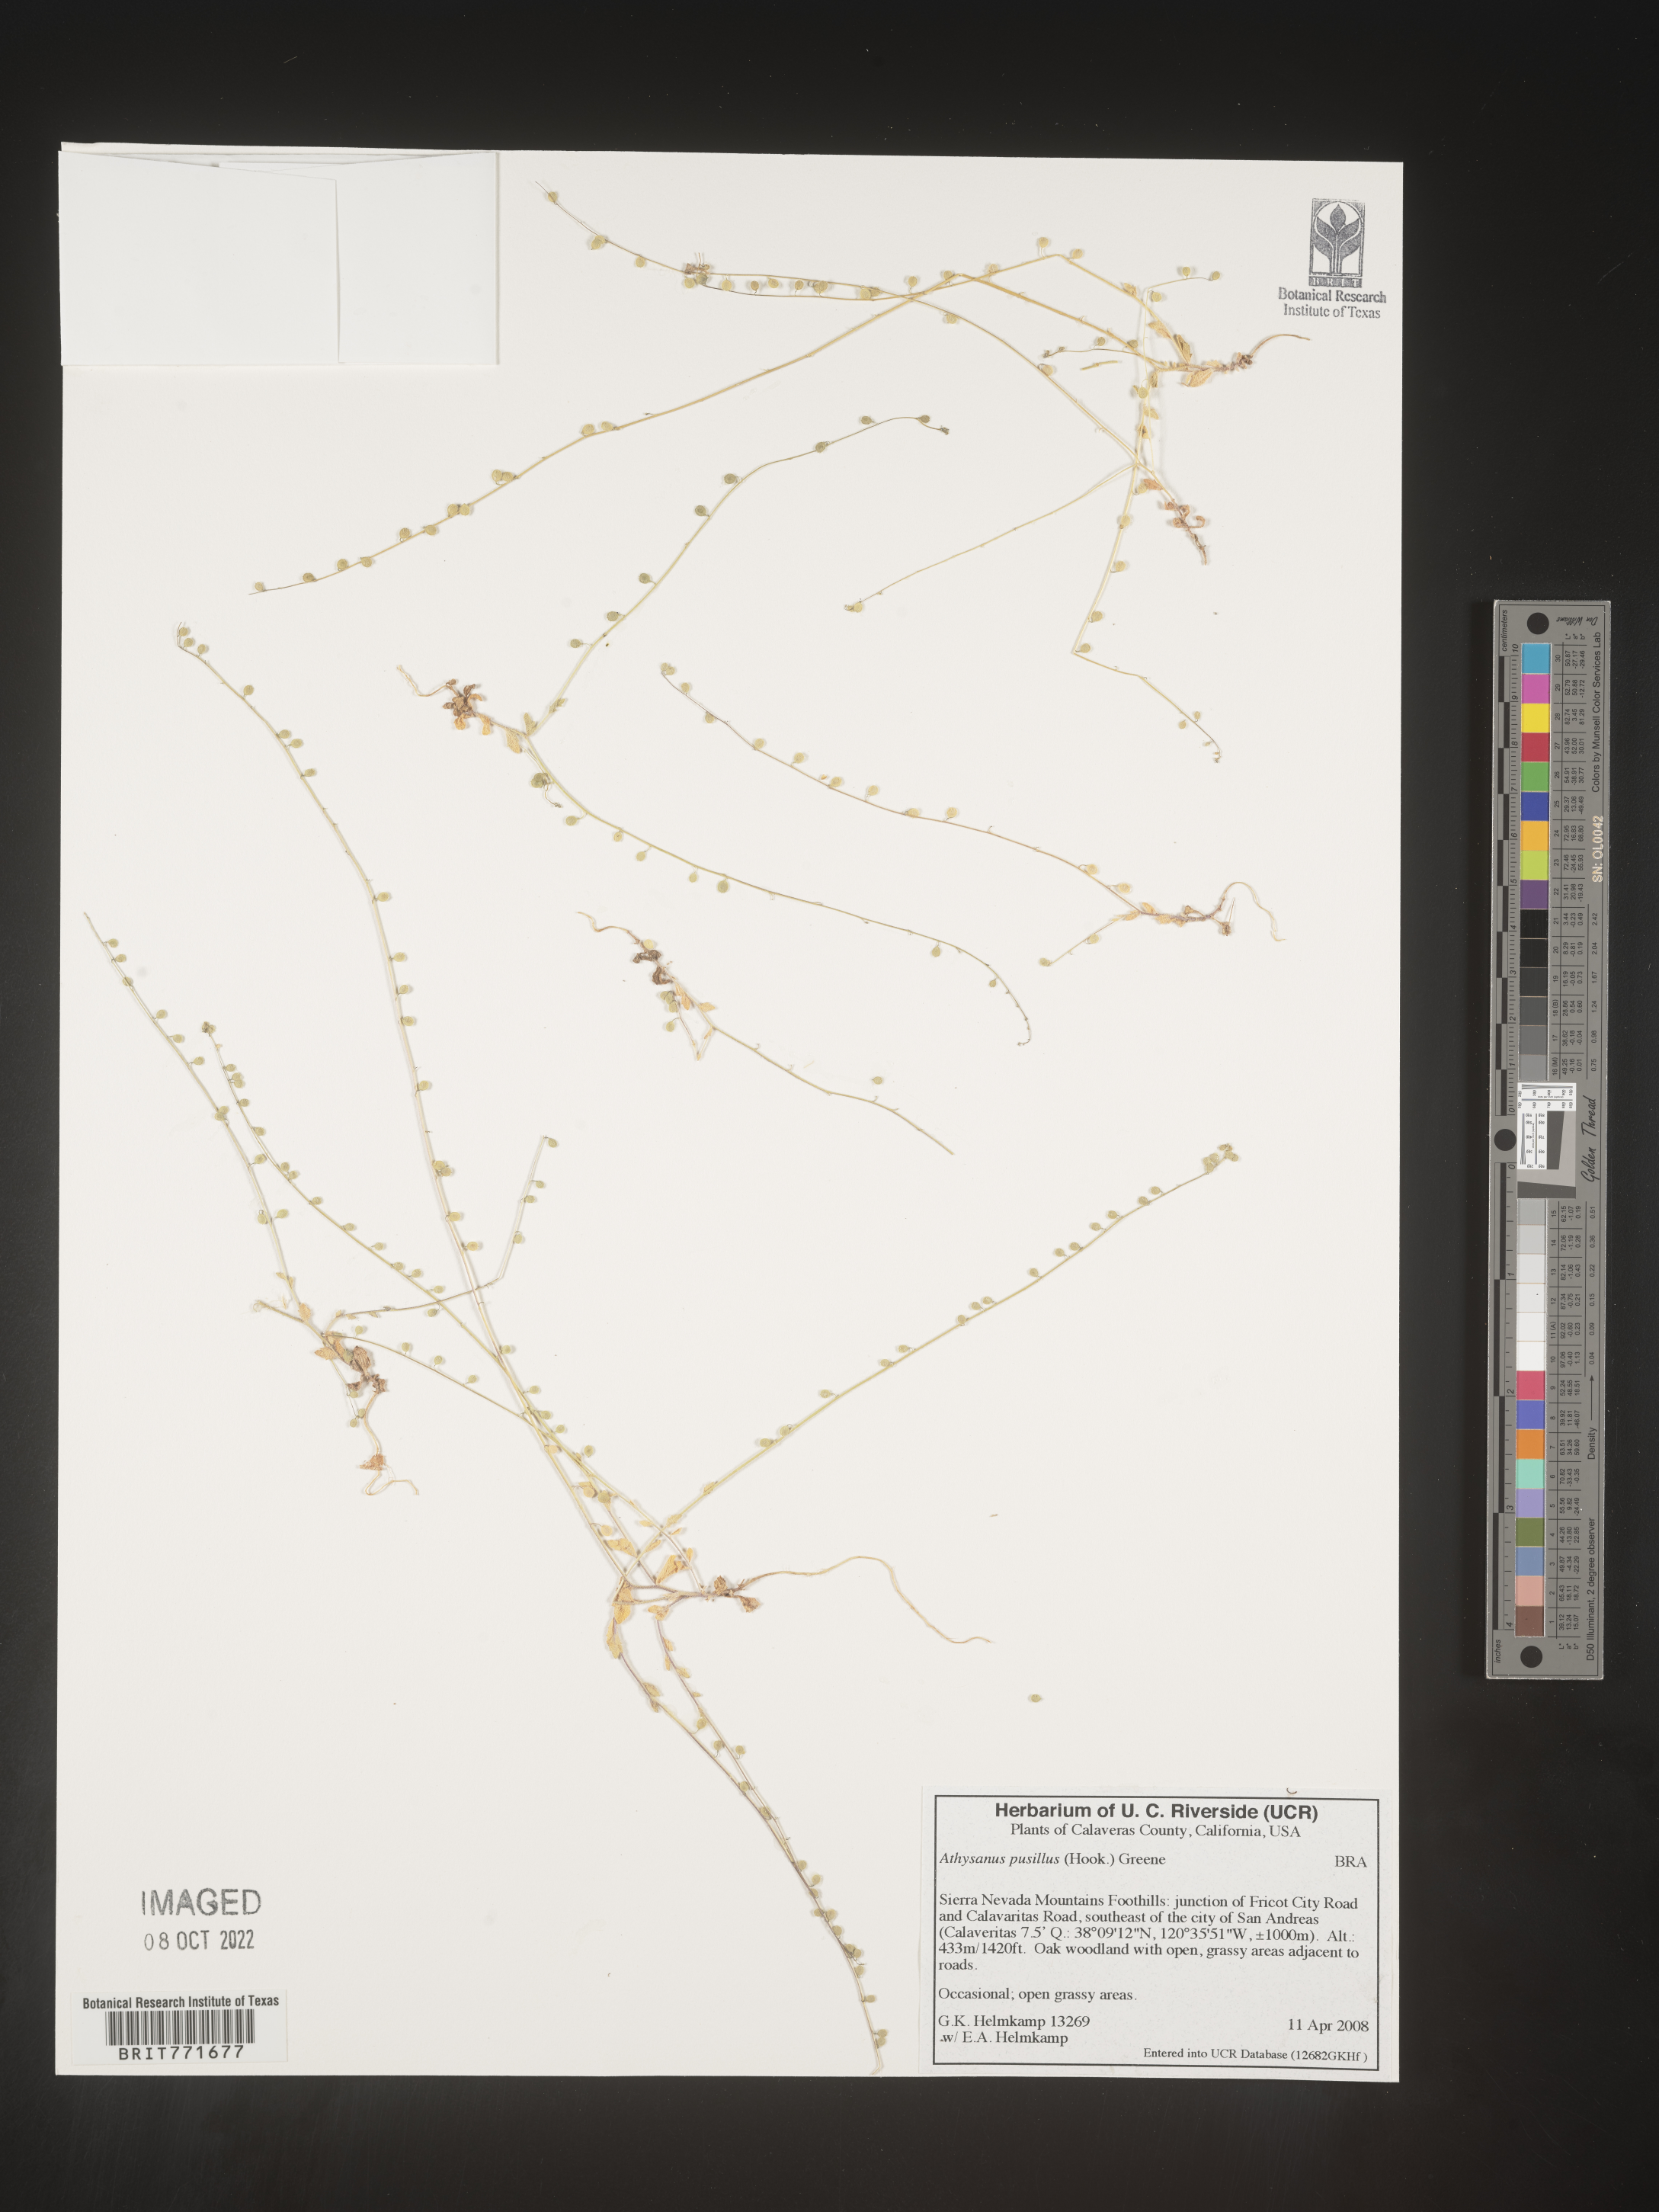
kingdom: Plantae
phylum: Tracheophyta
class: Magnoliopsida
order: Brassicales
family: Brassicaceae
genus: Athysanus
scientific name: Athysanus
